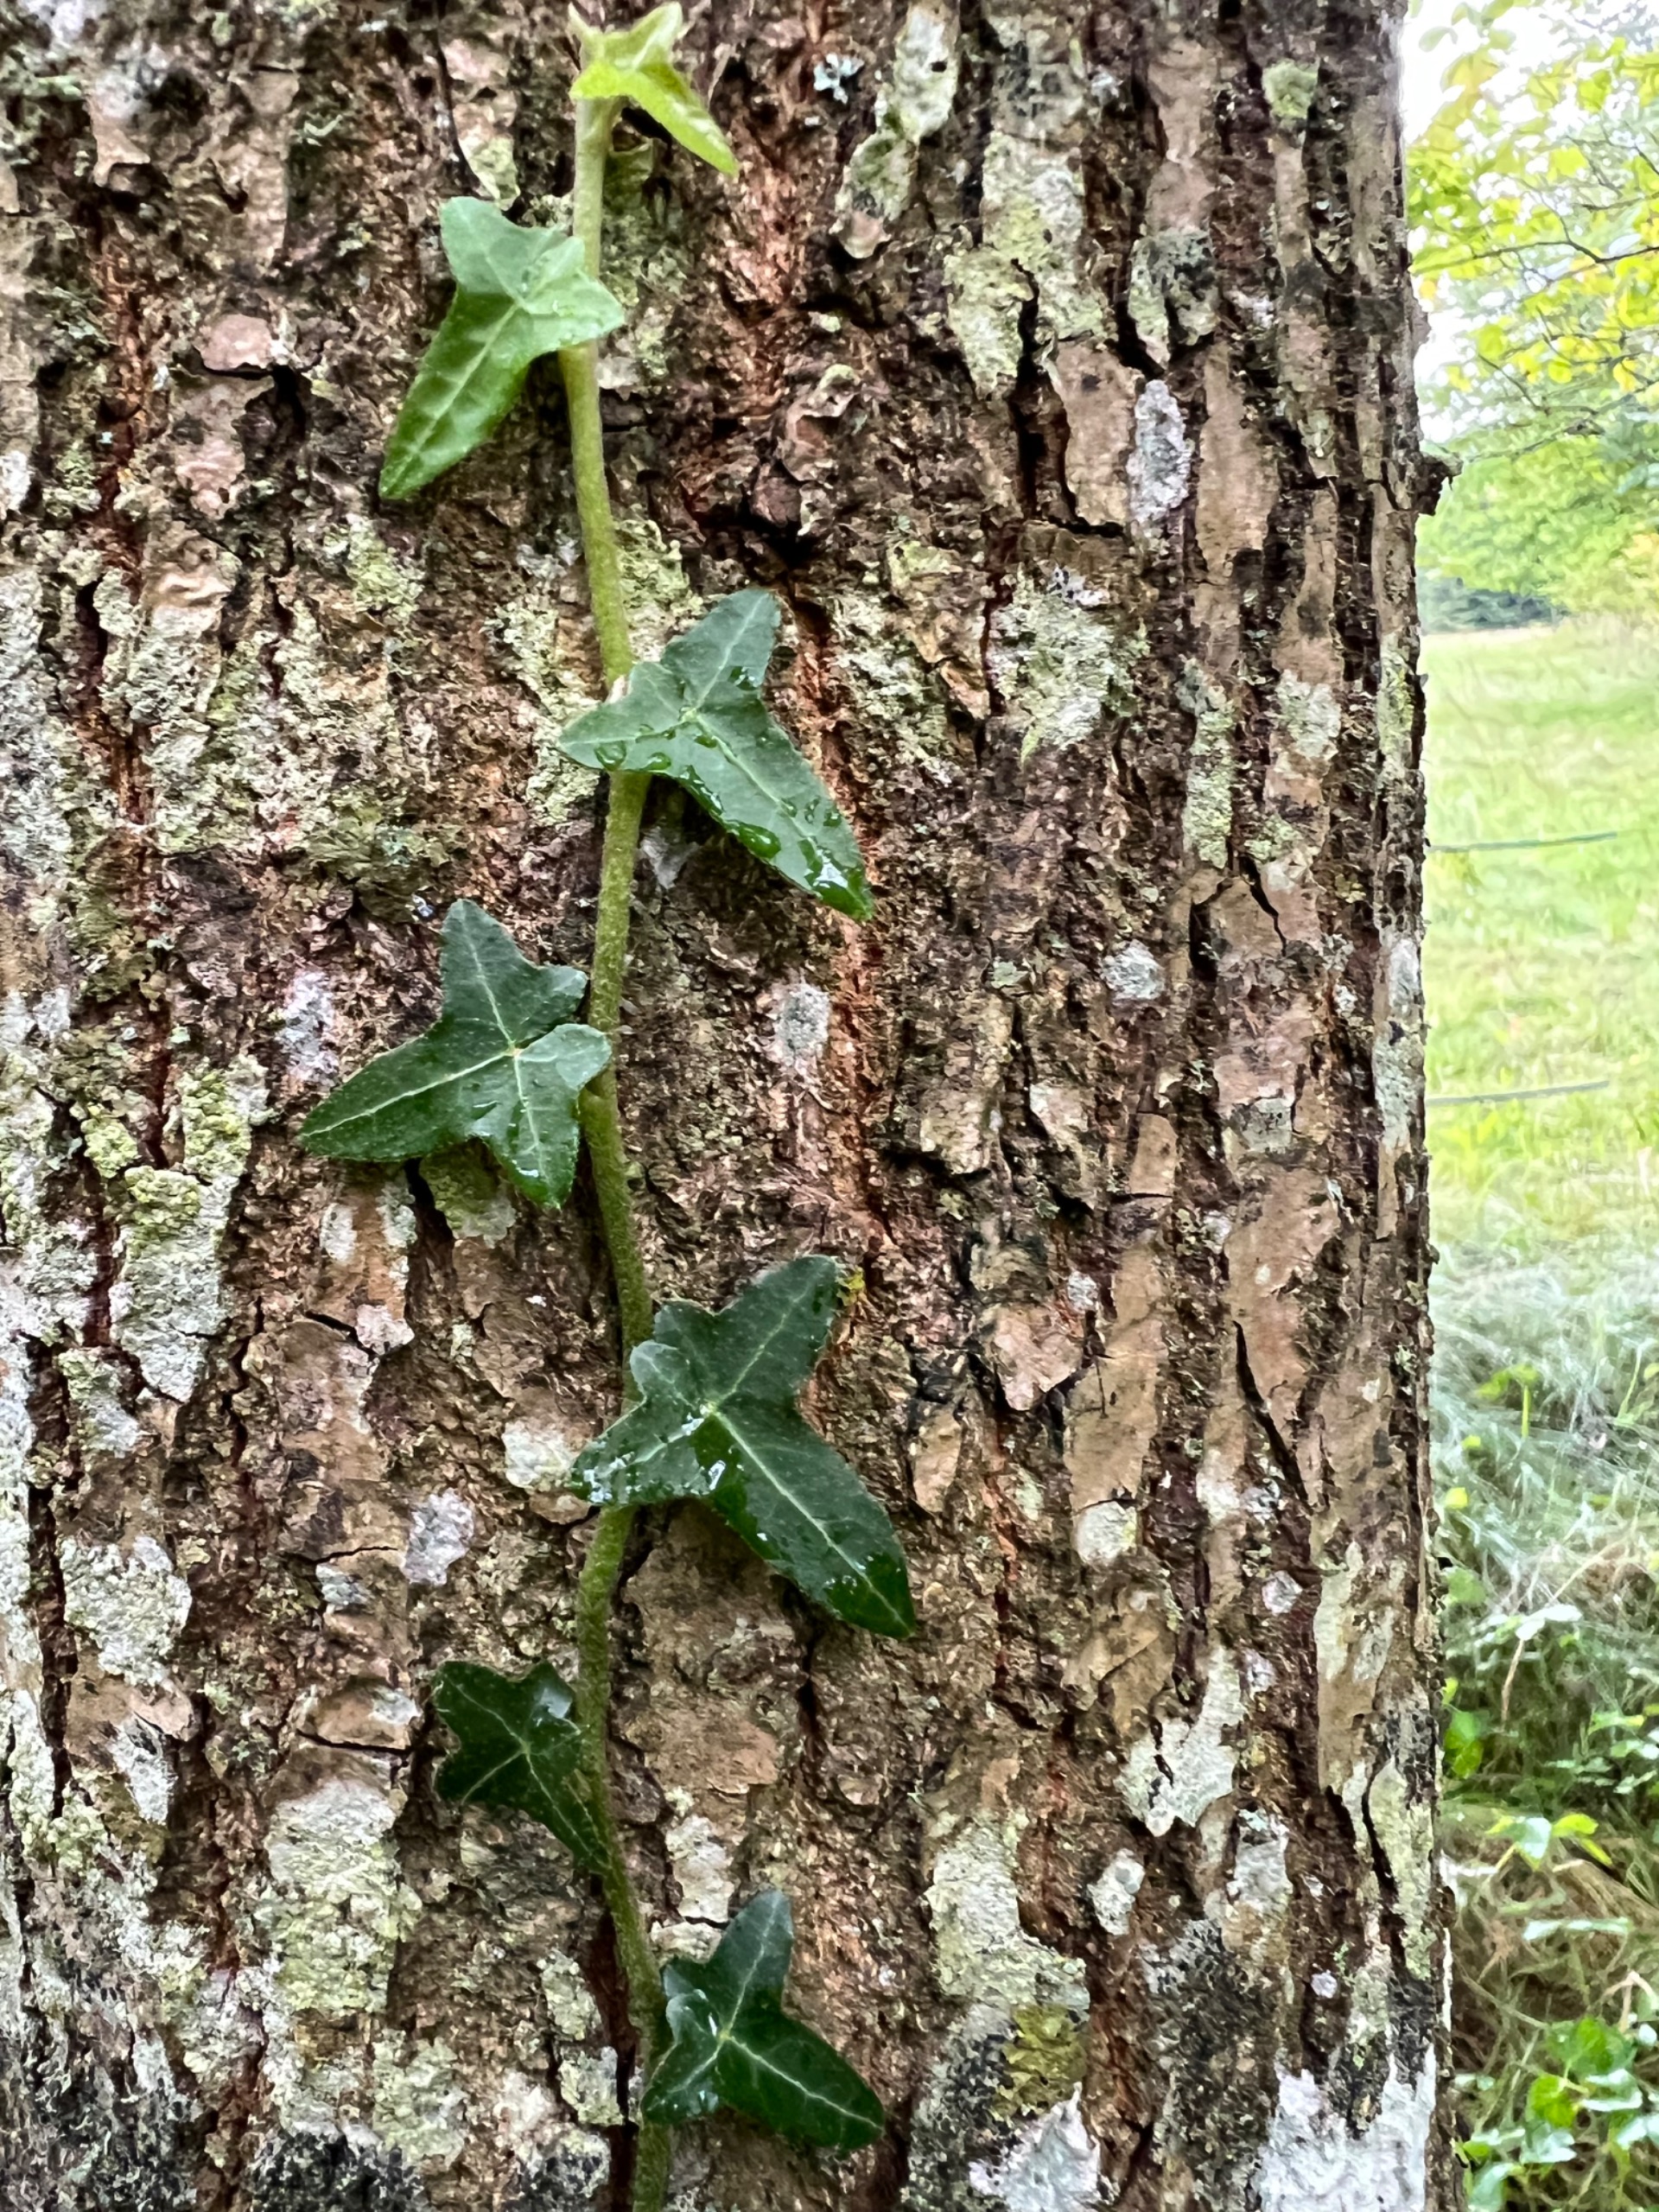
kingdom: Plantae
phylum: Tracheophyta
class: Magnoliopsida
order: Apiales
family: Araliaceae
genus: Hedera
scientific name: Hedera helix
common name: Vedbend
